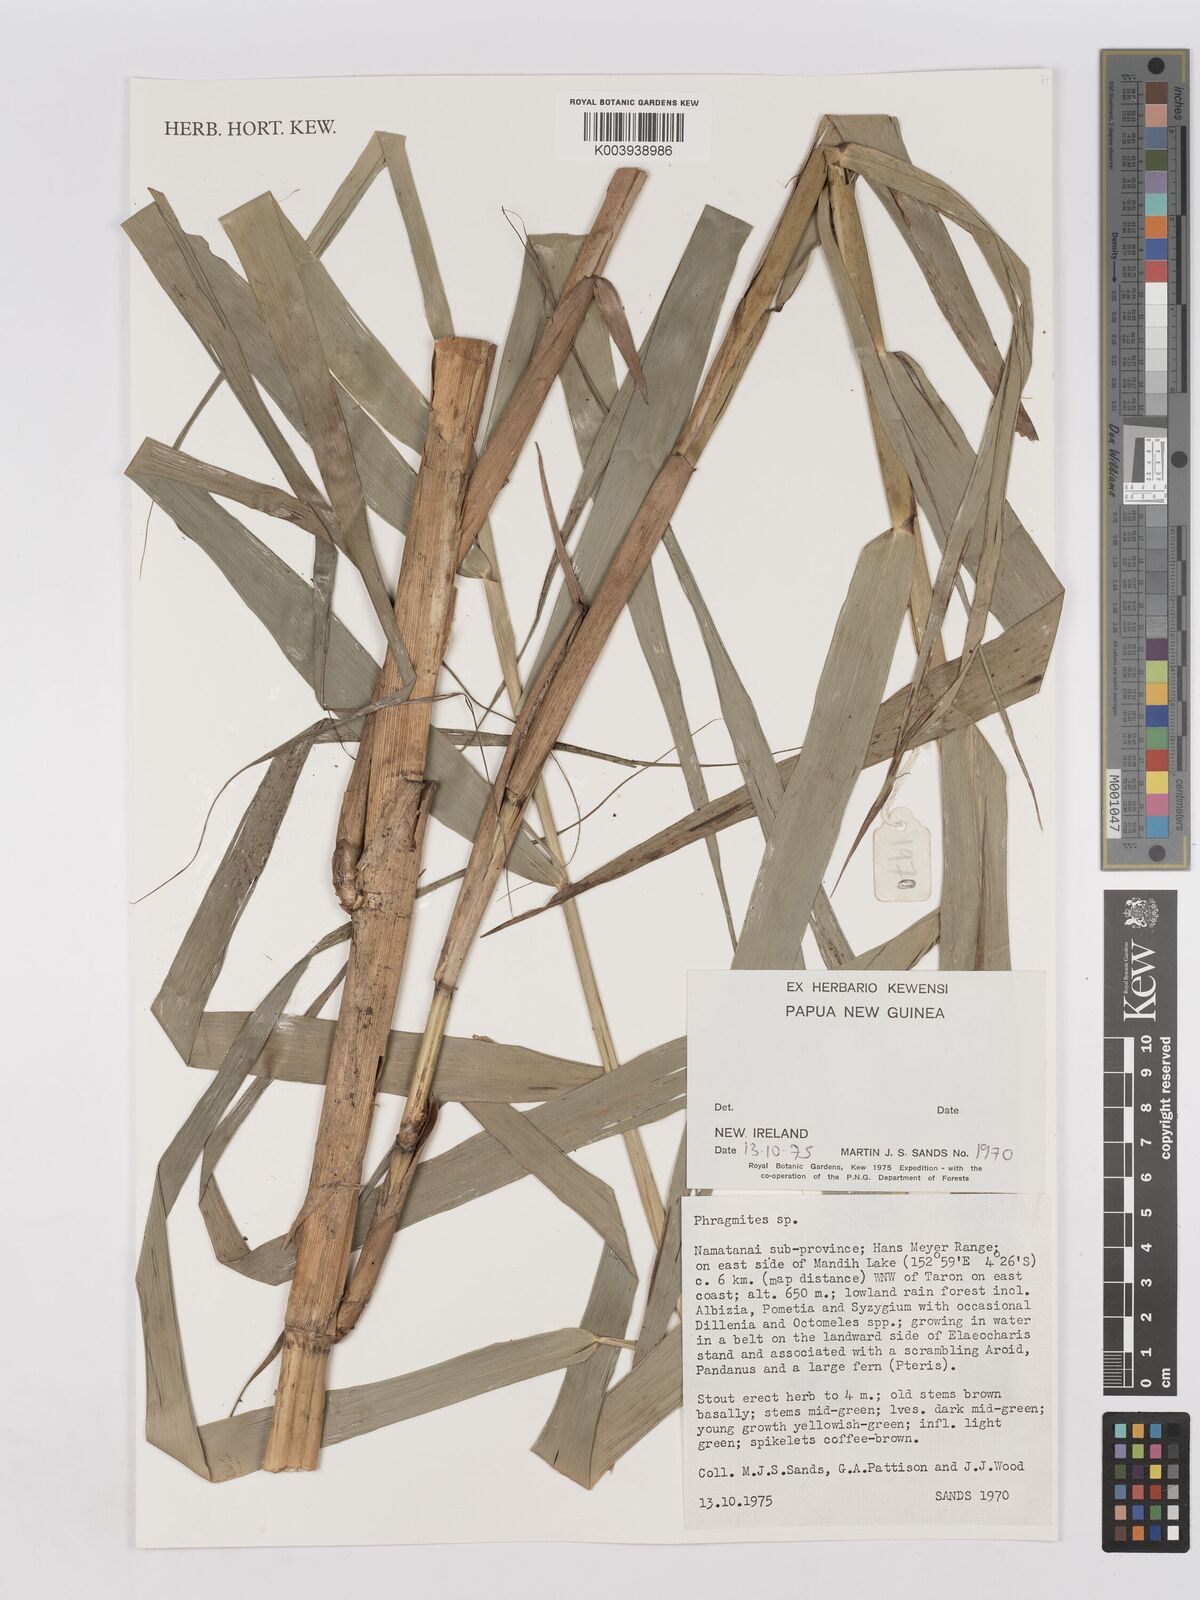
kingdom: Plantae
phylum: Tracheophyta
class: Liliopsida
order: Poales
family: Poaceae
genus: Phragmites
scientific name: Phragmites karka
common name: Tropical reed
